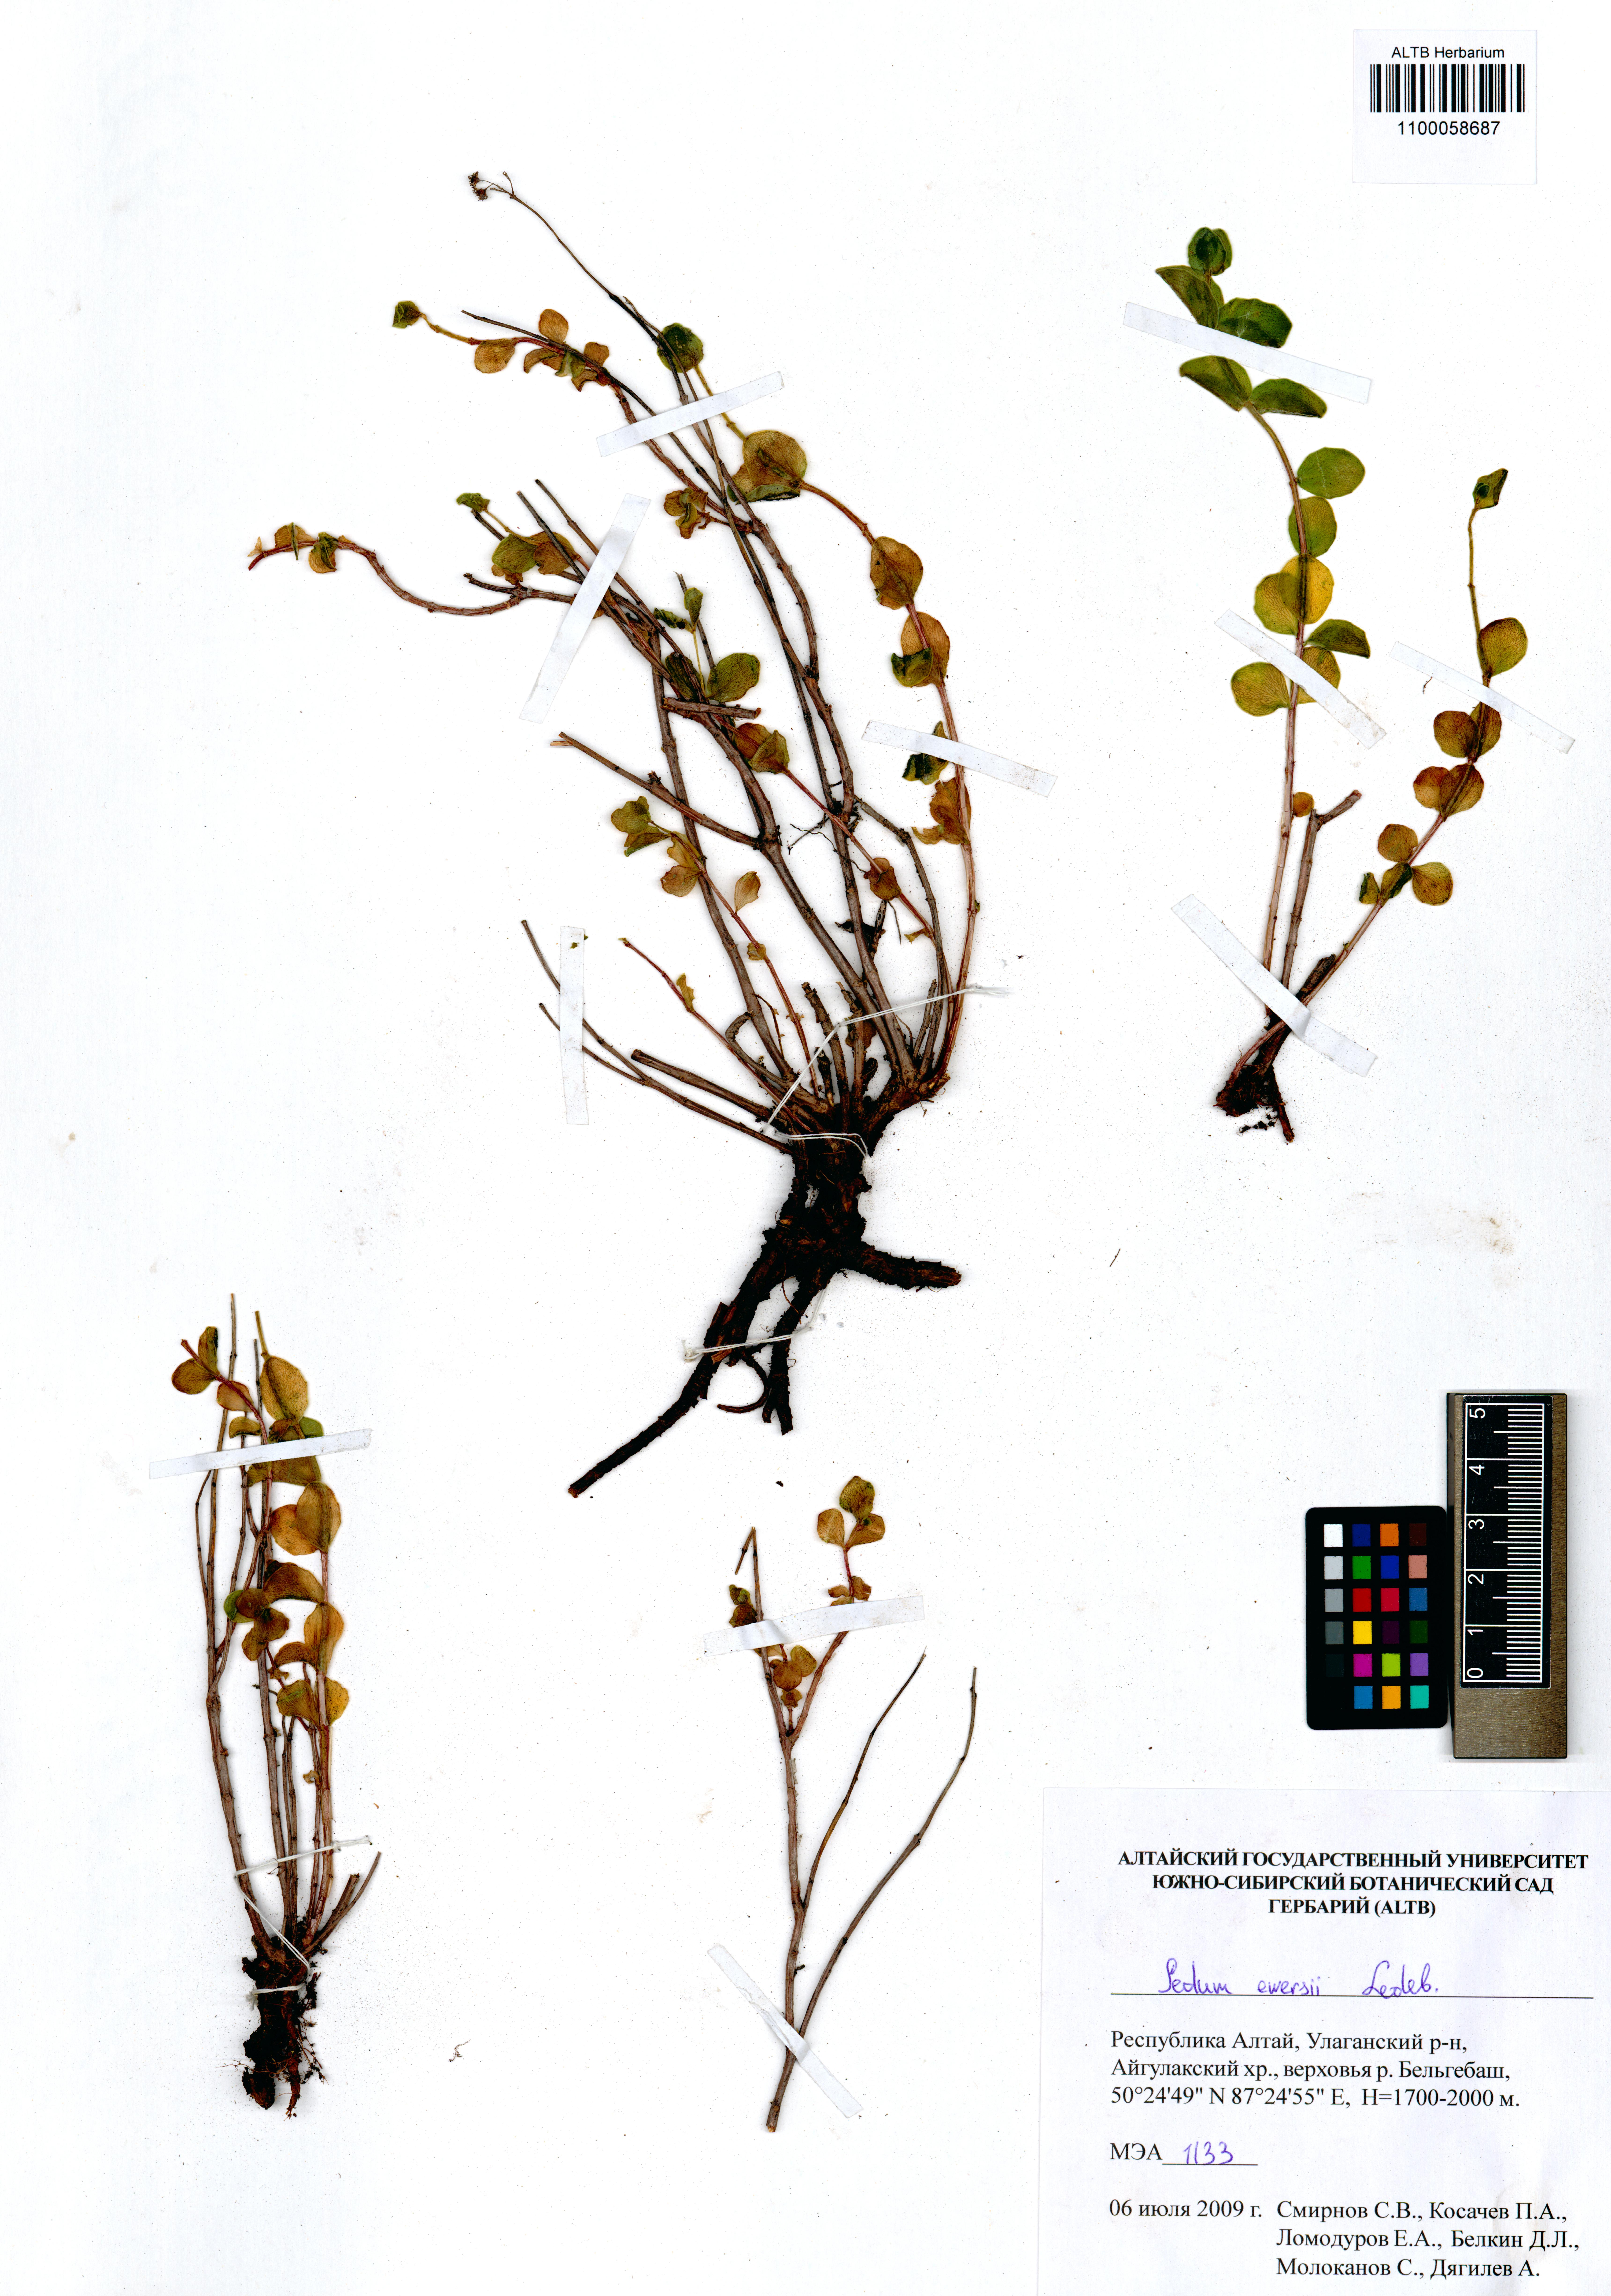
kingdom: Plantae
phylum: Tracheophyta
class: Magnoliopsida
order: Saxifragales
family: Crassulaceae
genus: Hylotelephium
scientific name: Hylotelephium ewersii
